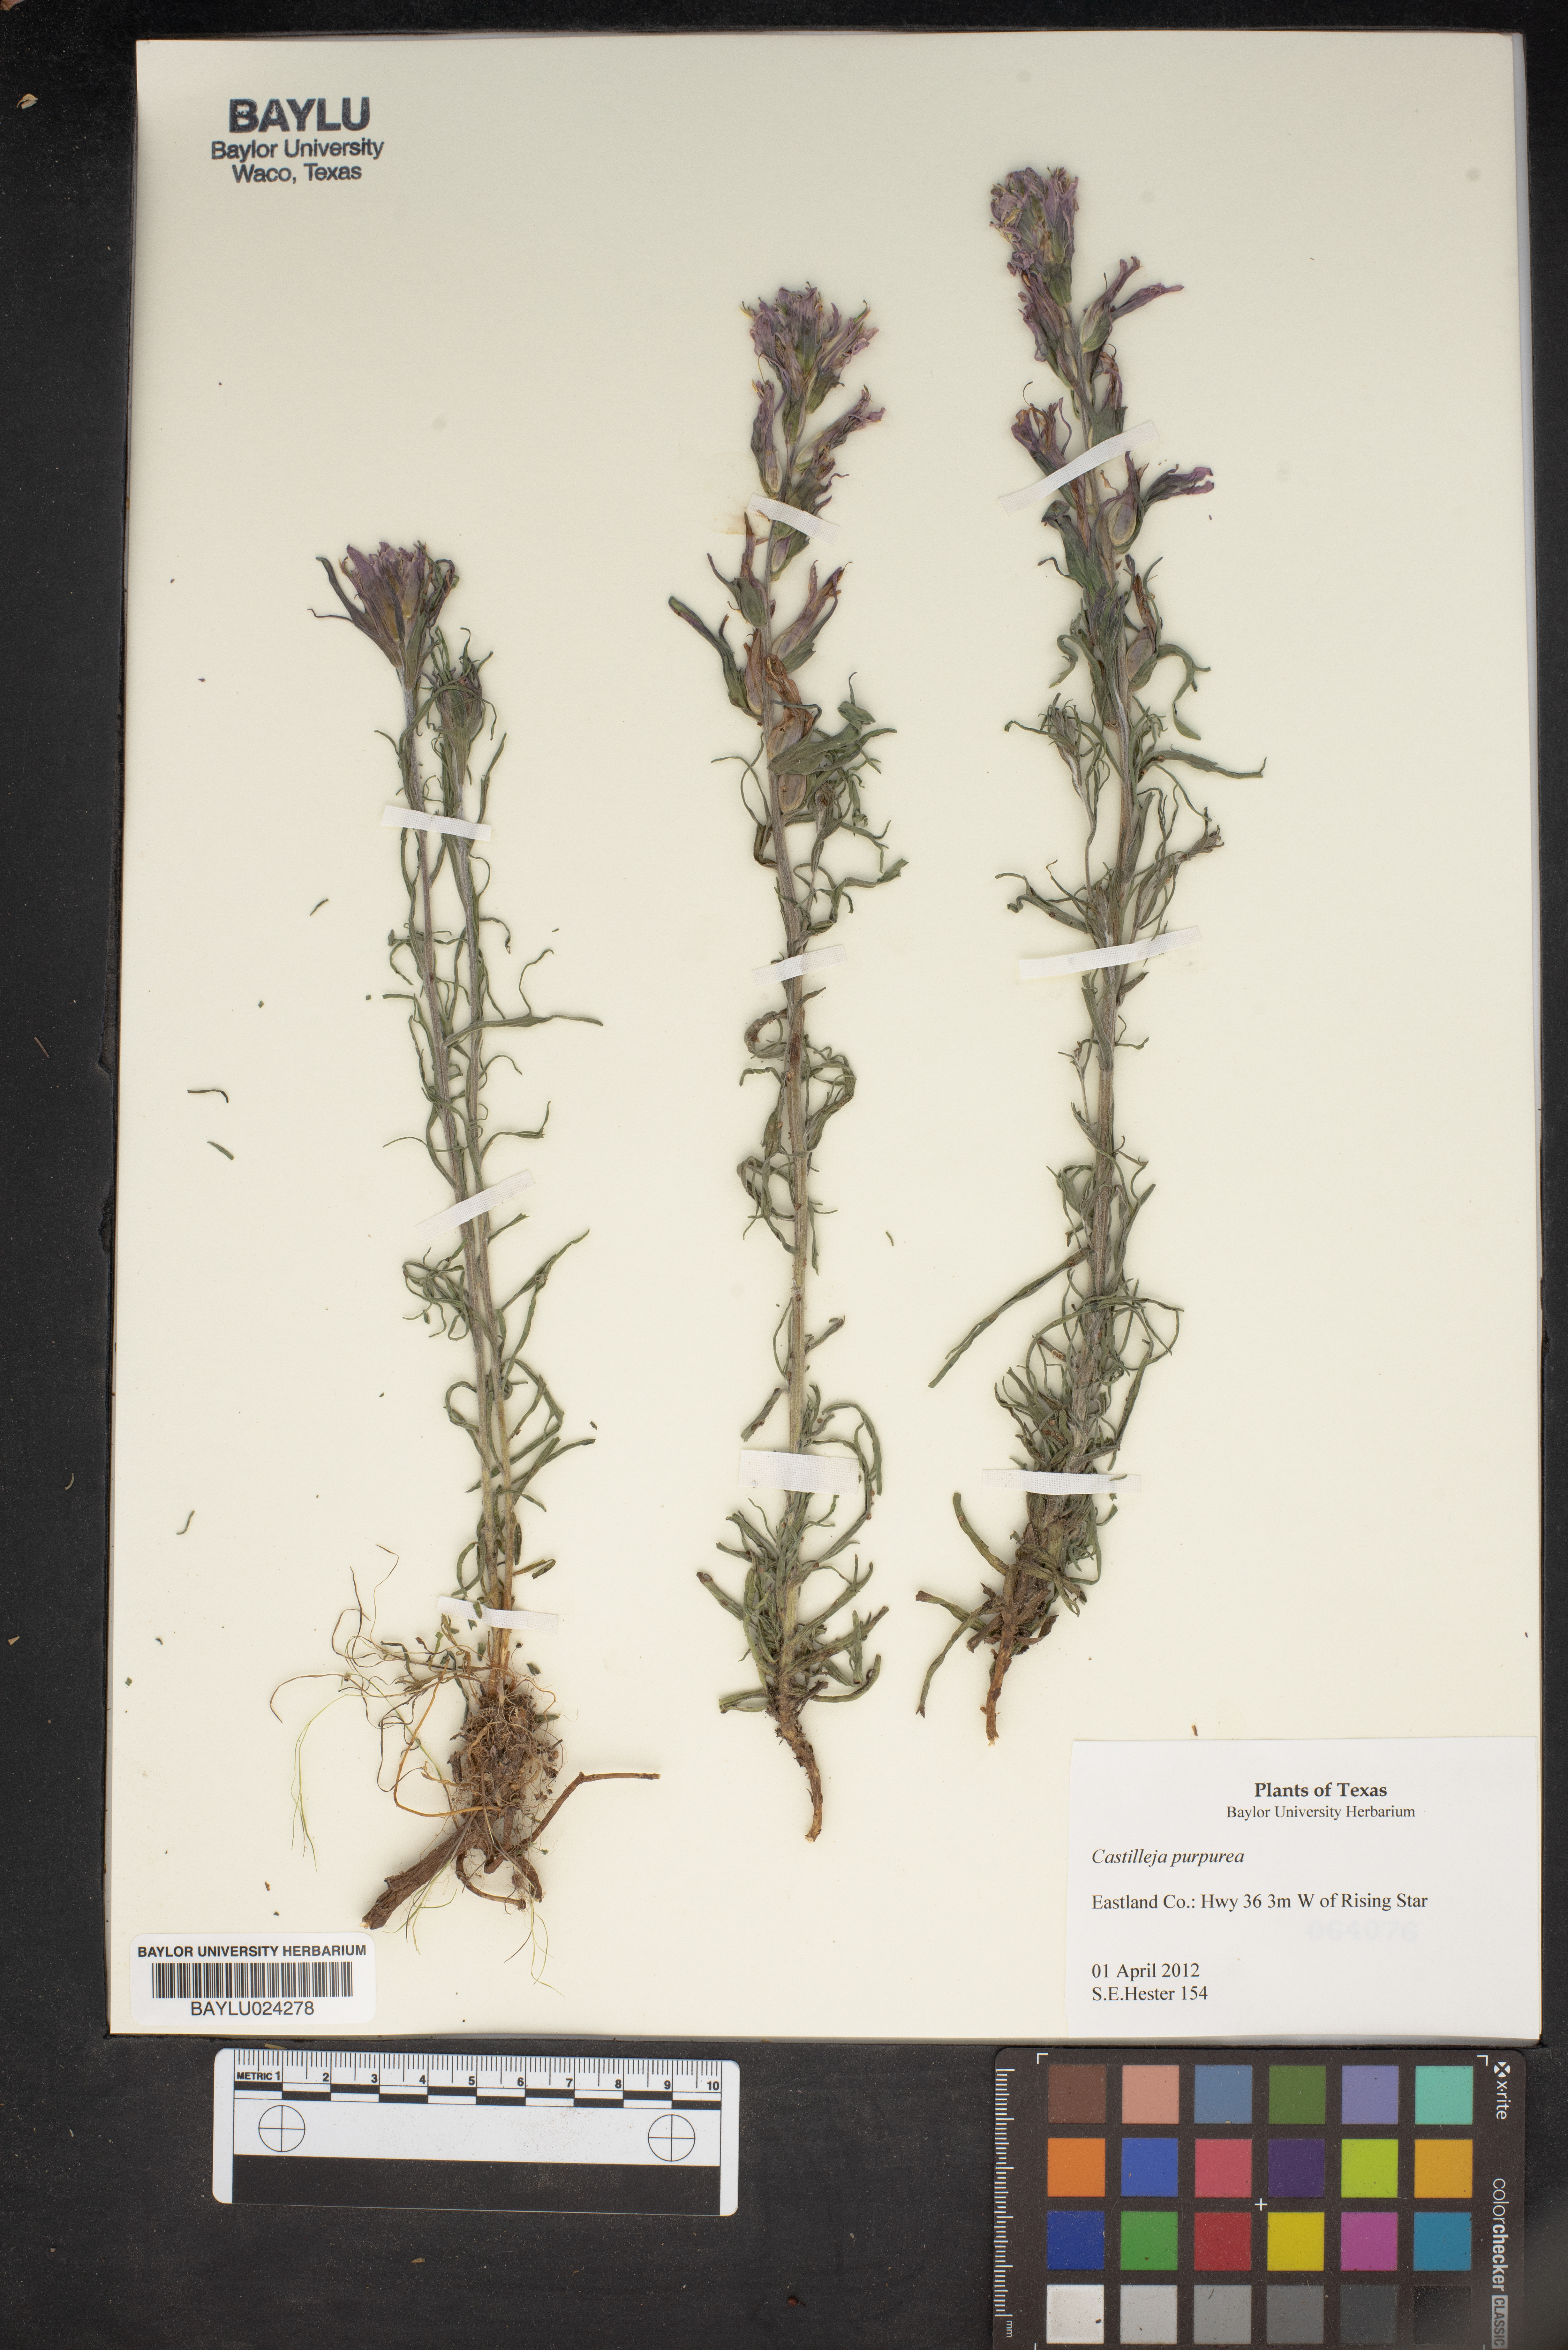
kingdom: Plantae
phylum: Tracheophyta
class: Magnoliopsida
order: Lamiales
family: Orobanchaceae
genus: Castilleja
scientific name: Castilleja purpurea
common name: Plains paintbrush
